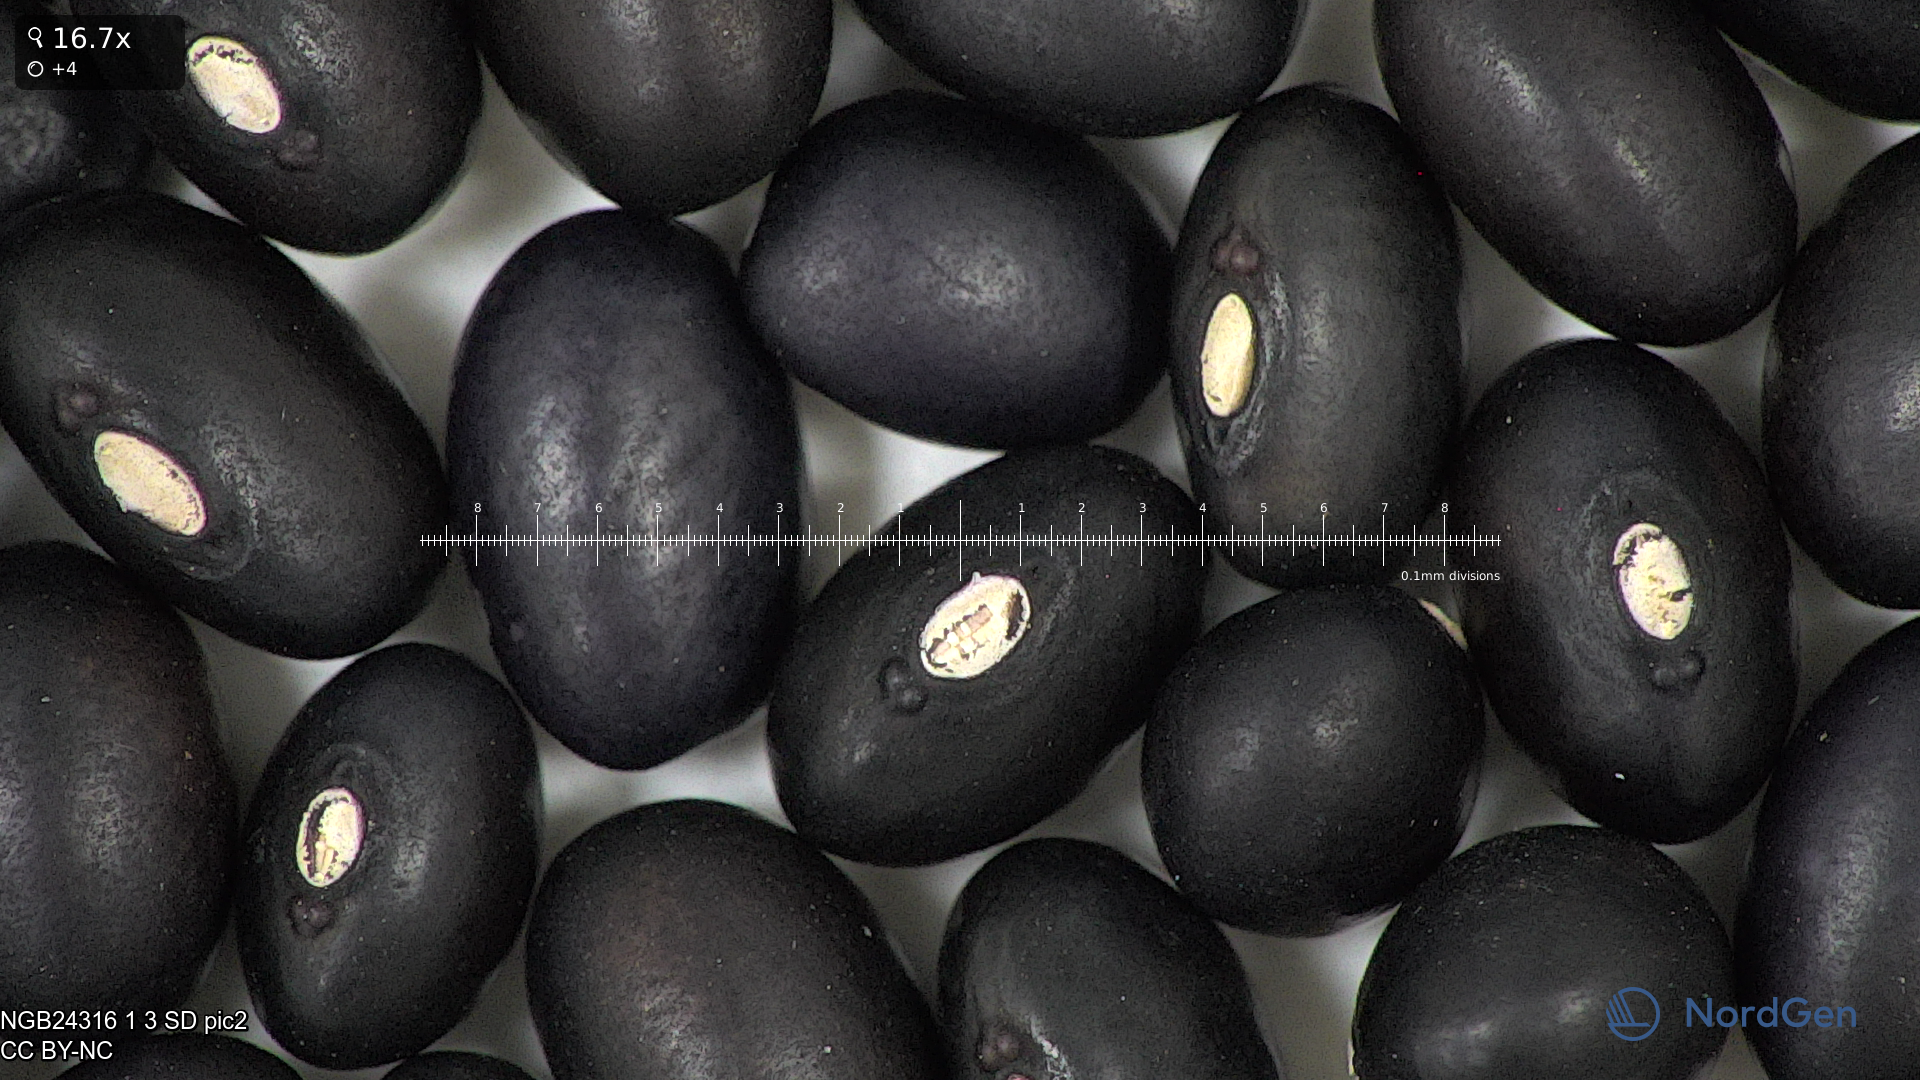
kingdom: Plantae
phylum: Tracheophyta
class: Magnoliopsida
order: Fabales
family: Fabaceae
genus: Phaseolus
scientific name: Phaseolus vulgaris
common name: Bean
